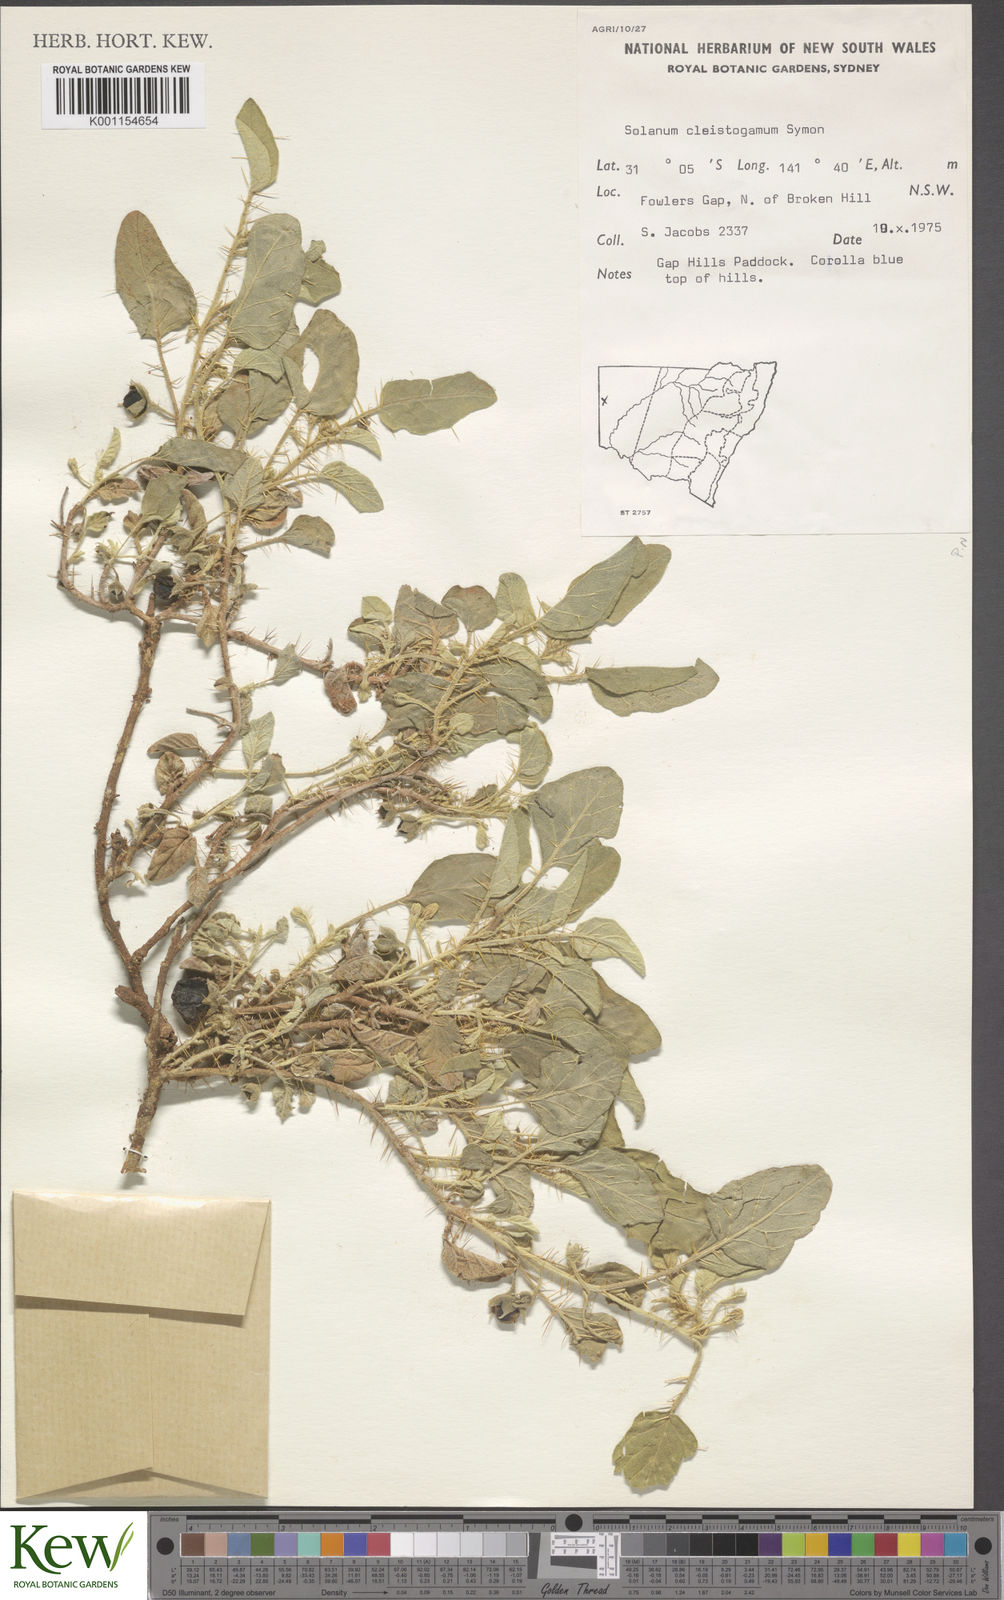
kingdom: Plantae
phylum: Tracheophyta
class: Magnoliopsida
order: Solanales
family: Solanaceae
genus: Solanum
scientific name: Solanum cleistogamum
